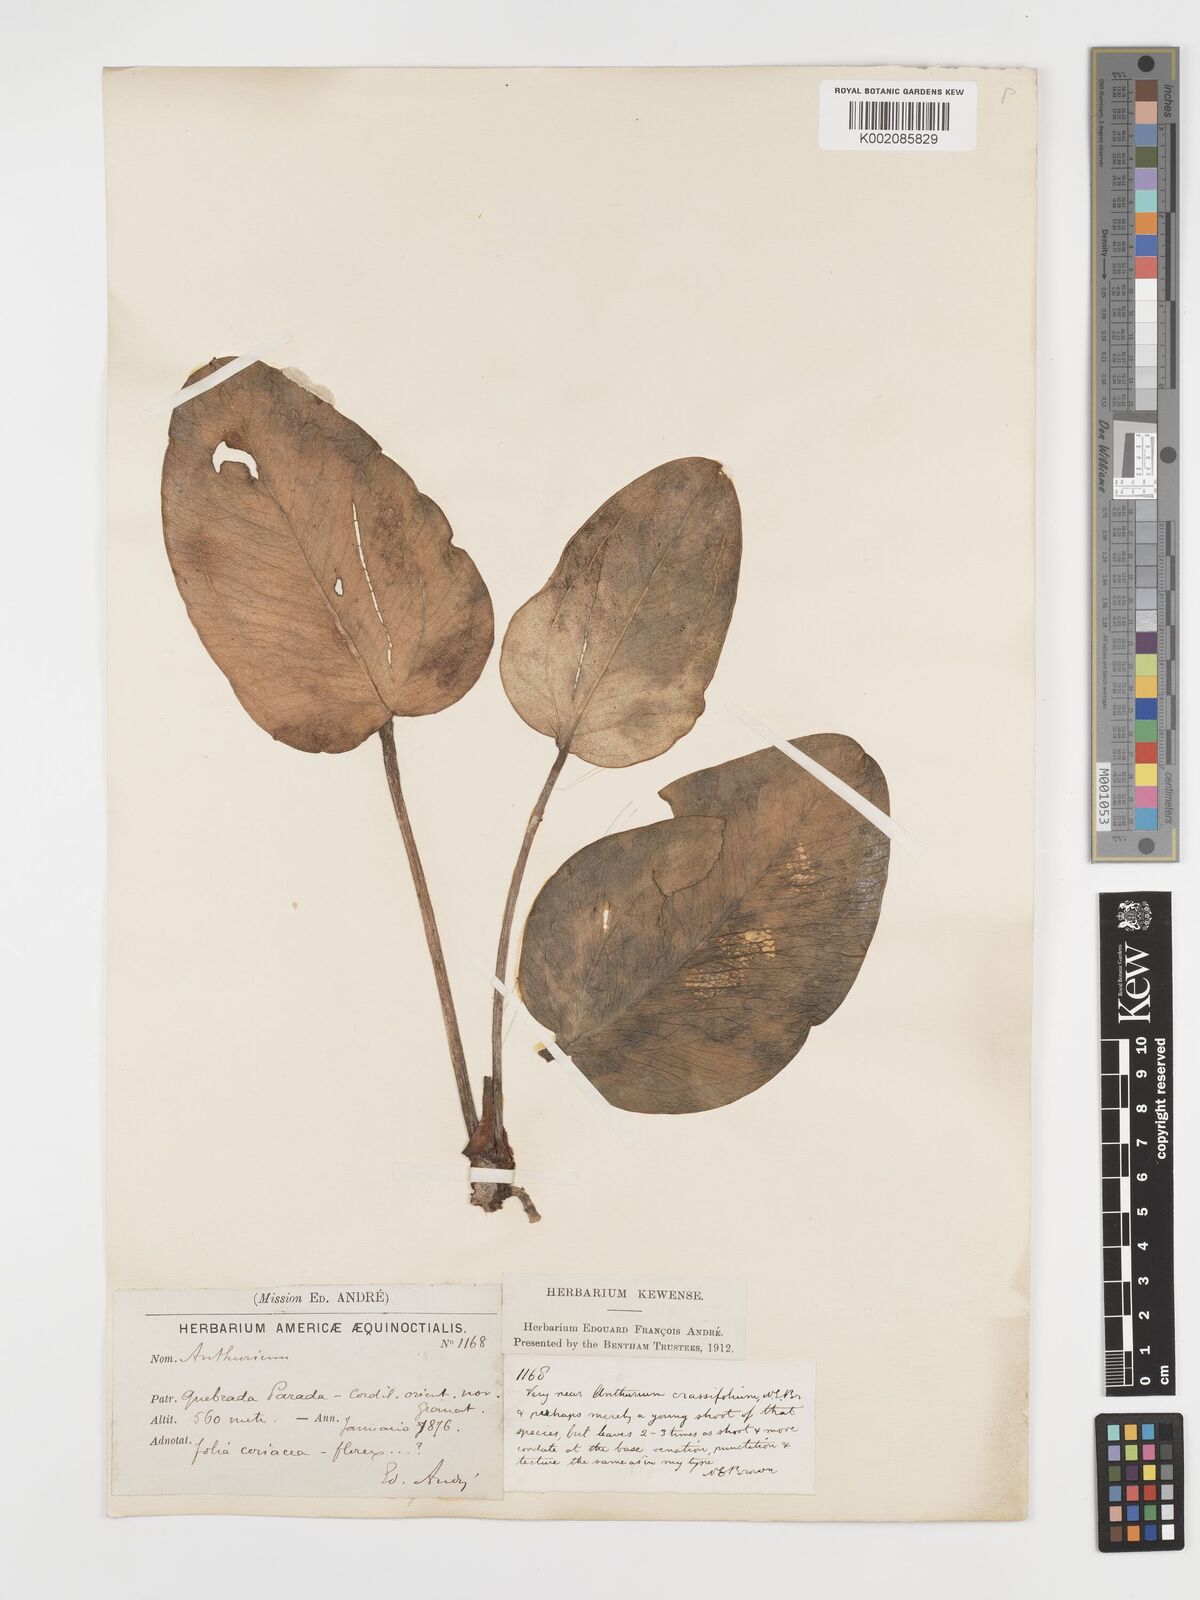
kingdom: Plantae
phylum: Tracheophyta
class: Liliopsida
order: Alismatales
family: Araceae
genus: Anthurium
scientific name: Anthurium crassifolium
